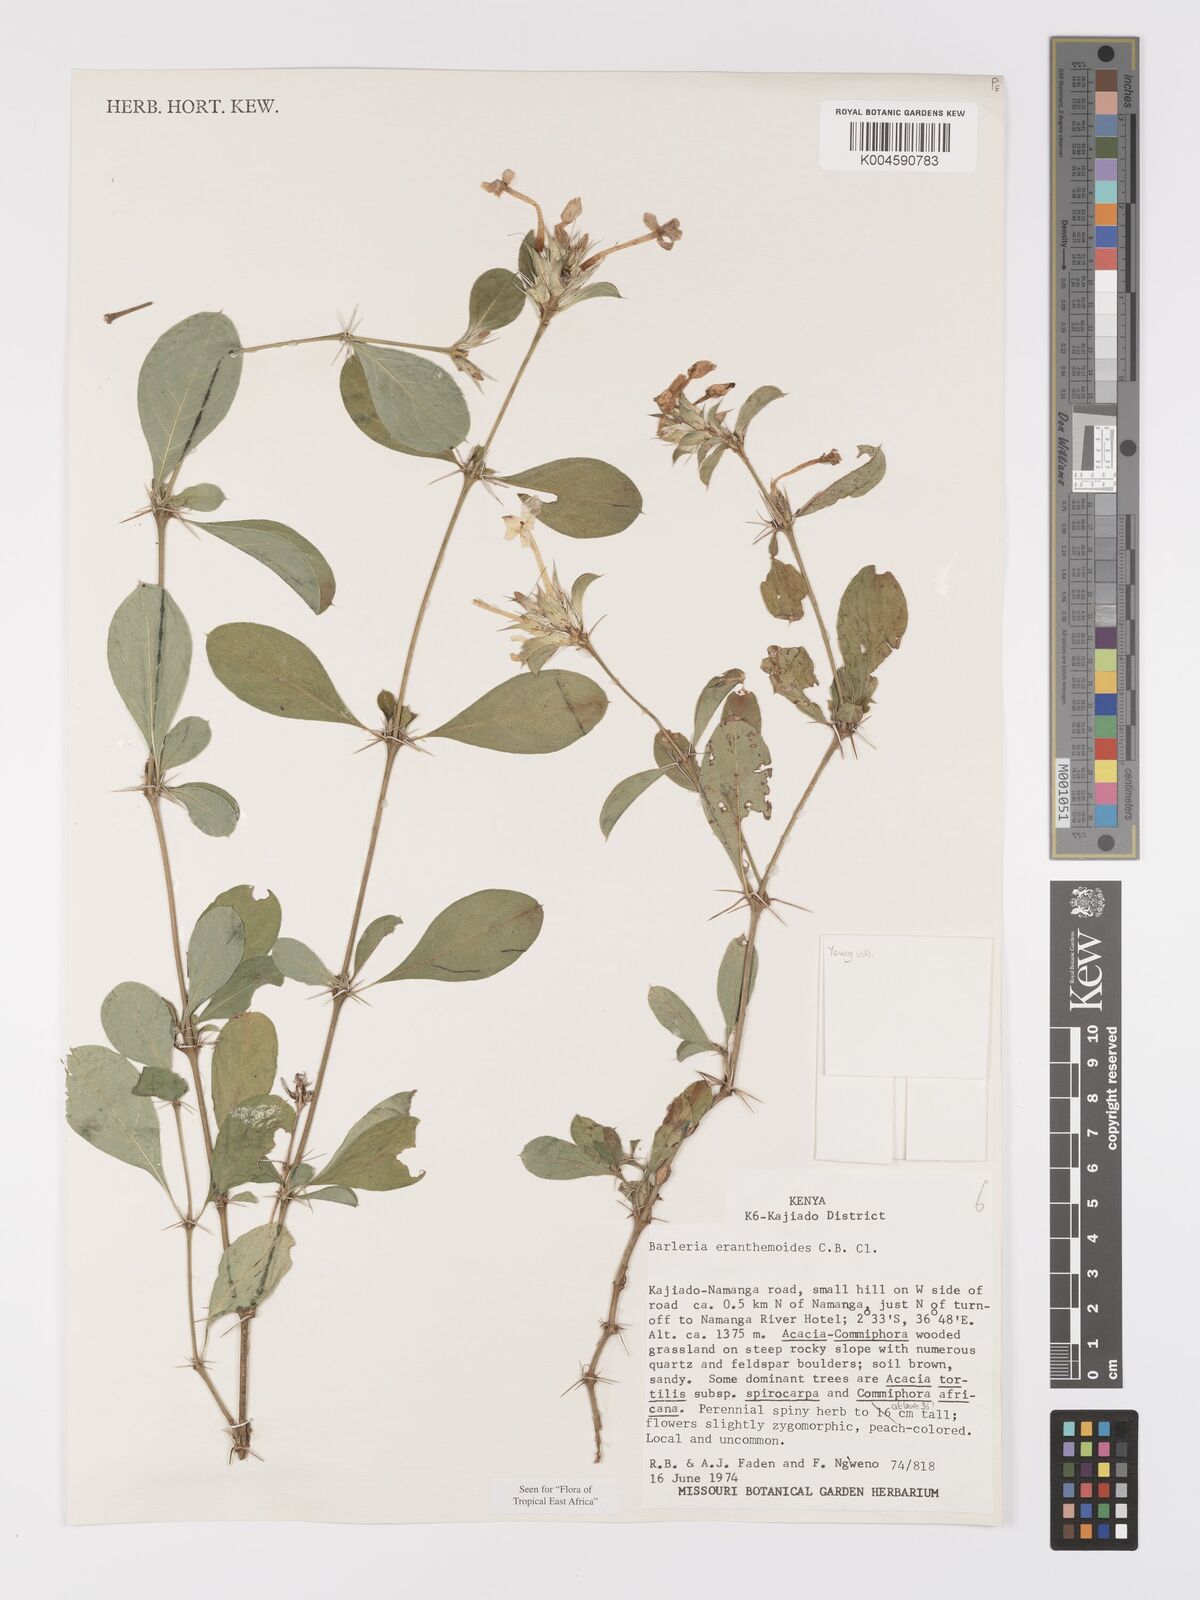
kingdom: Plantae
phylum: Tracheophyta
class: Magnoliopsida
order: Lamiales
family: Acanthaceae
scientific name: Acanthaceae
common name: Acanthaceae
